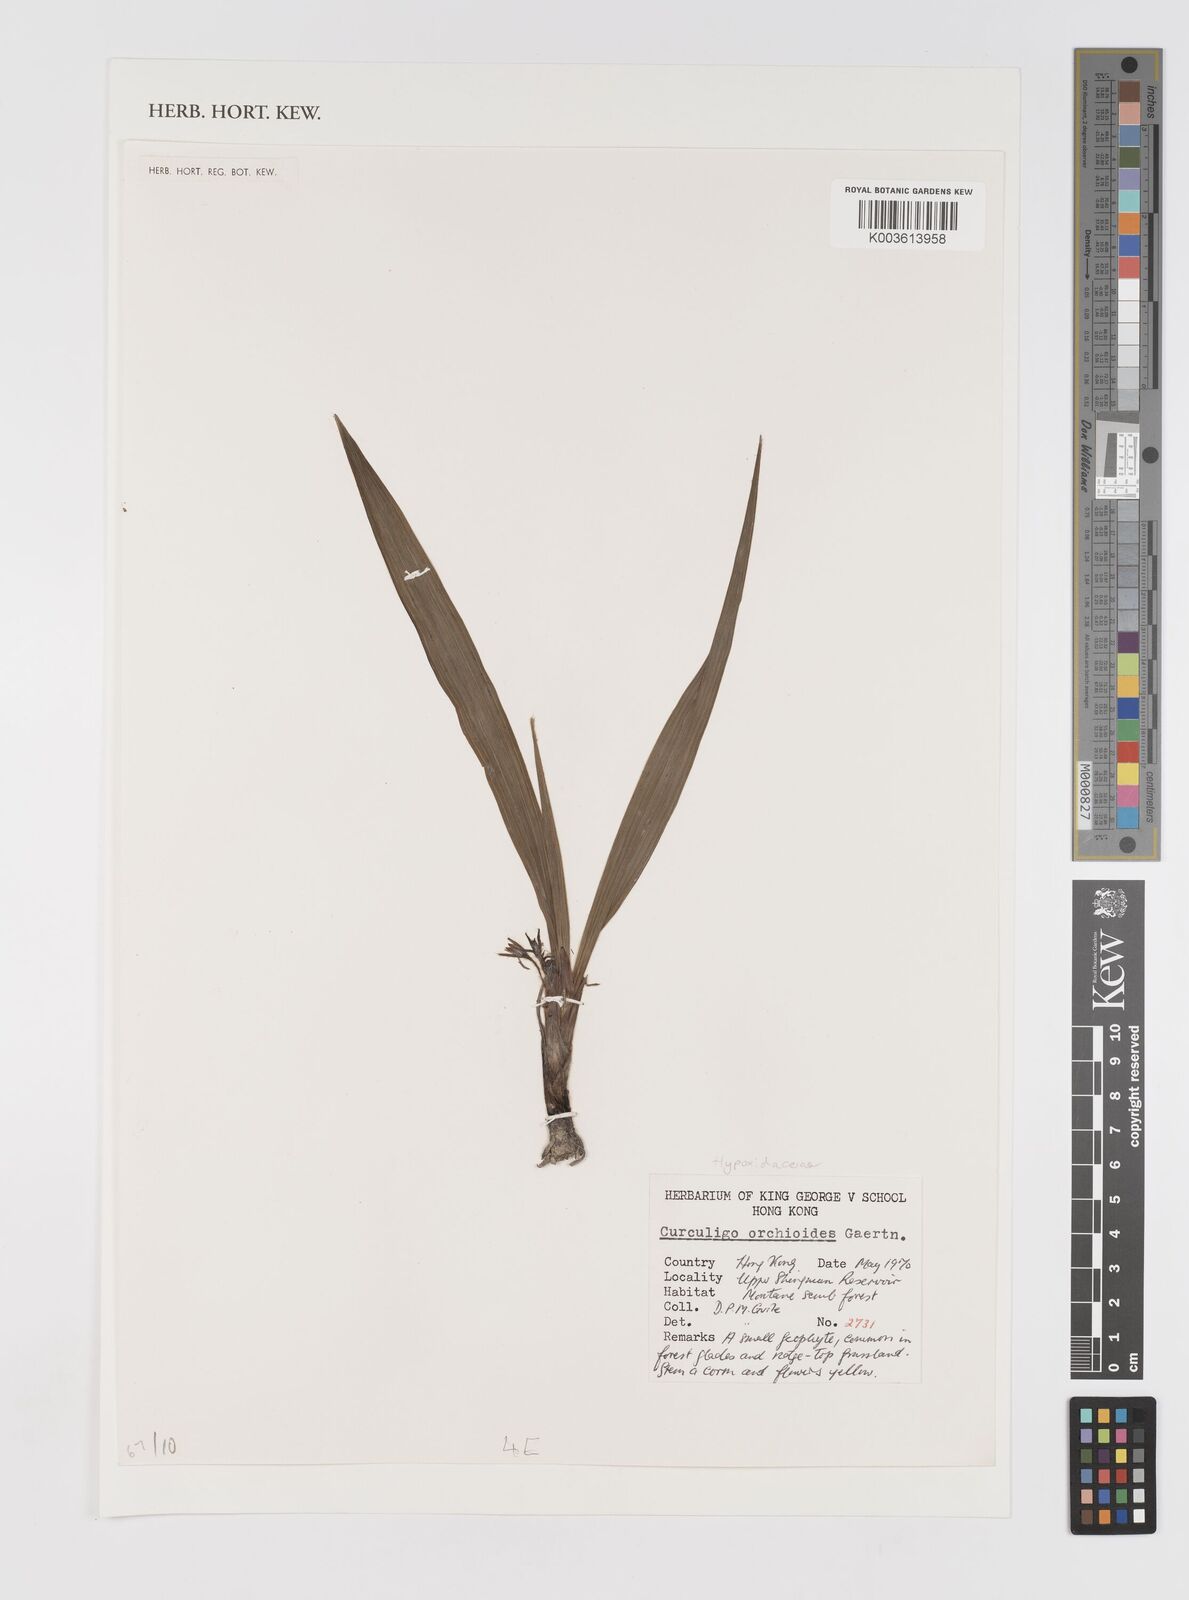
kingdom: Plantae
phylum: Tracheophyta
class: Liliopsida
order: Asparagales
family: Hypoxidaceae
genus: Curculigo
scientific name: Curculigo orchioides
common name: Golden eye-grass
